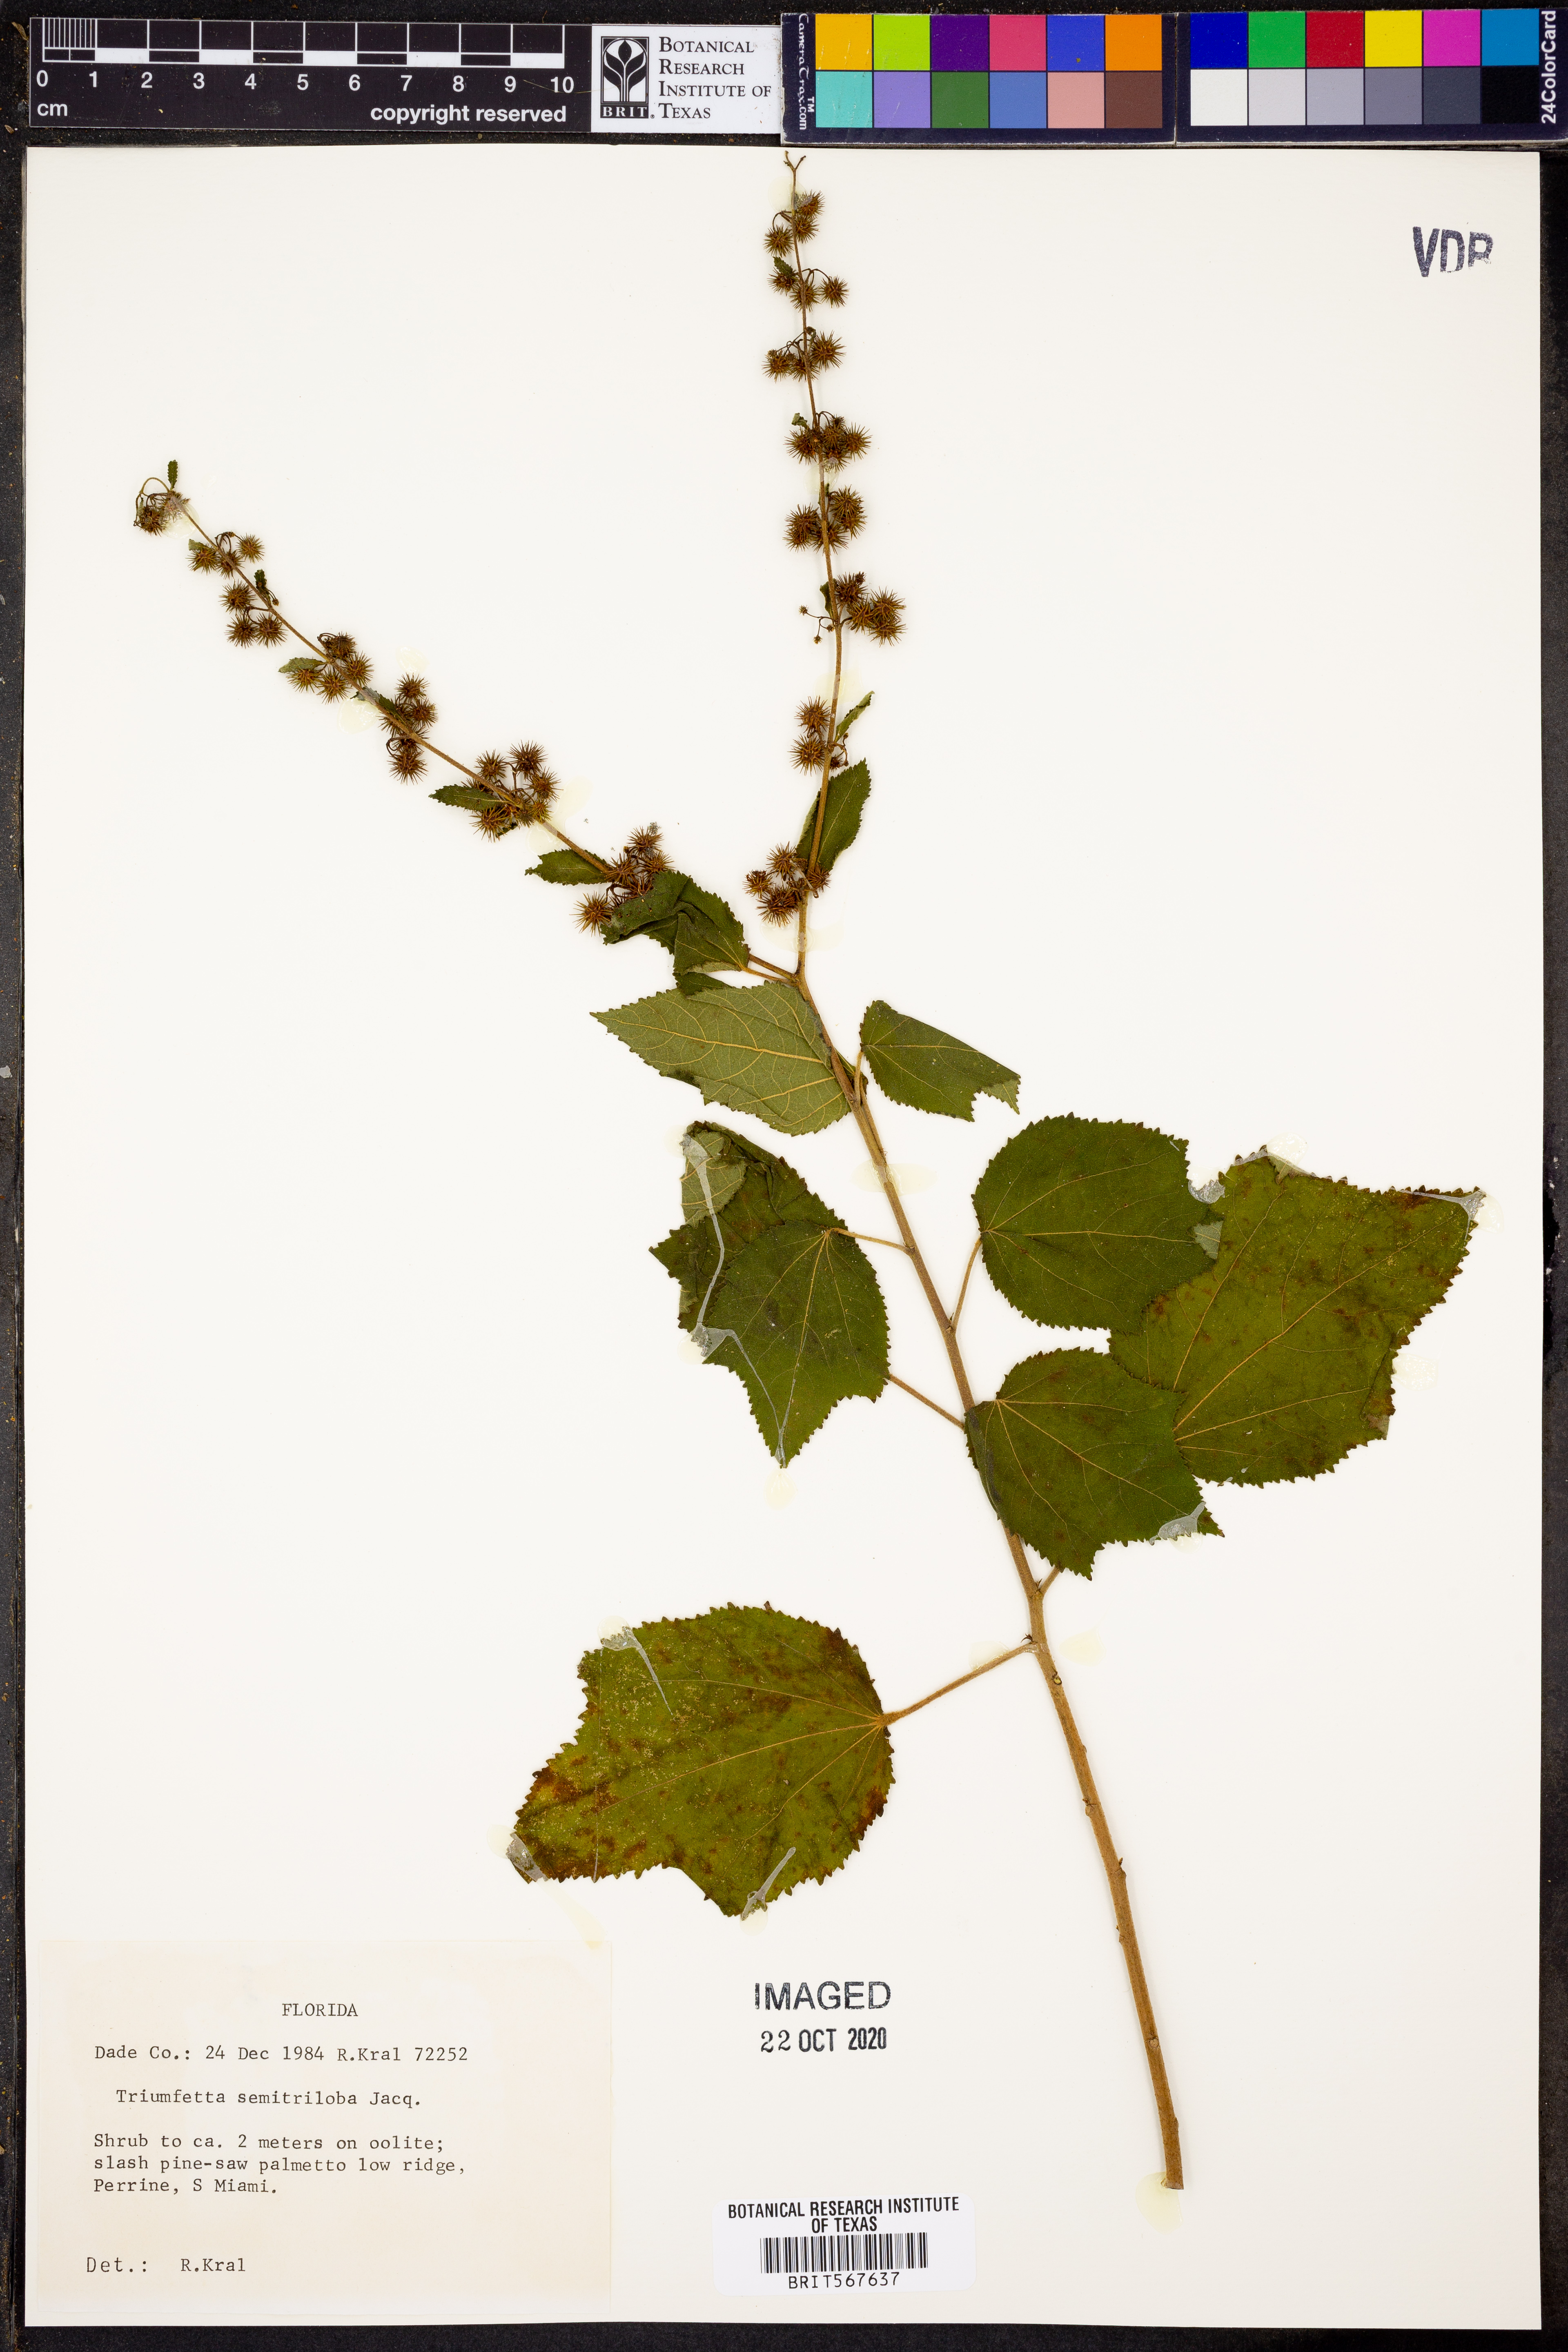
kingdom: Plantae
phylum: Tracheophyta
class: Magnoliopsida
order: Malvales
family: Malvaceae
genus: Triumfetta
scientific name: Triumfetta semitriloba
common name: Sacramento burbark
